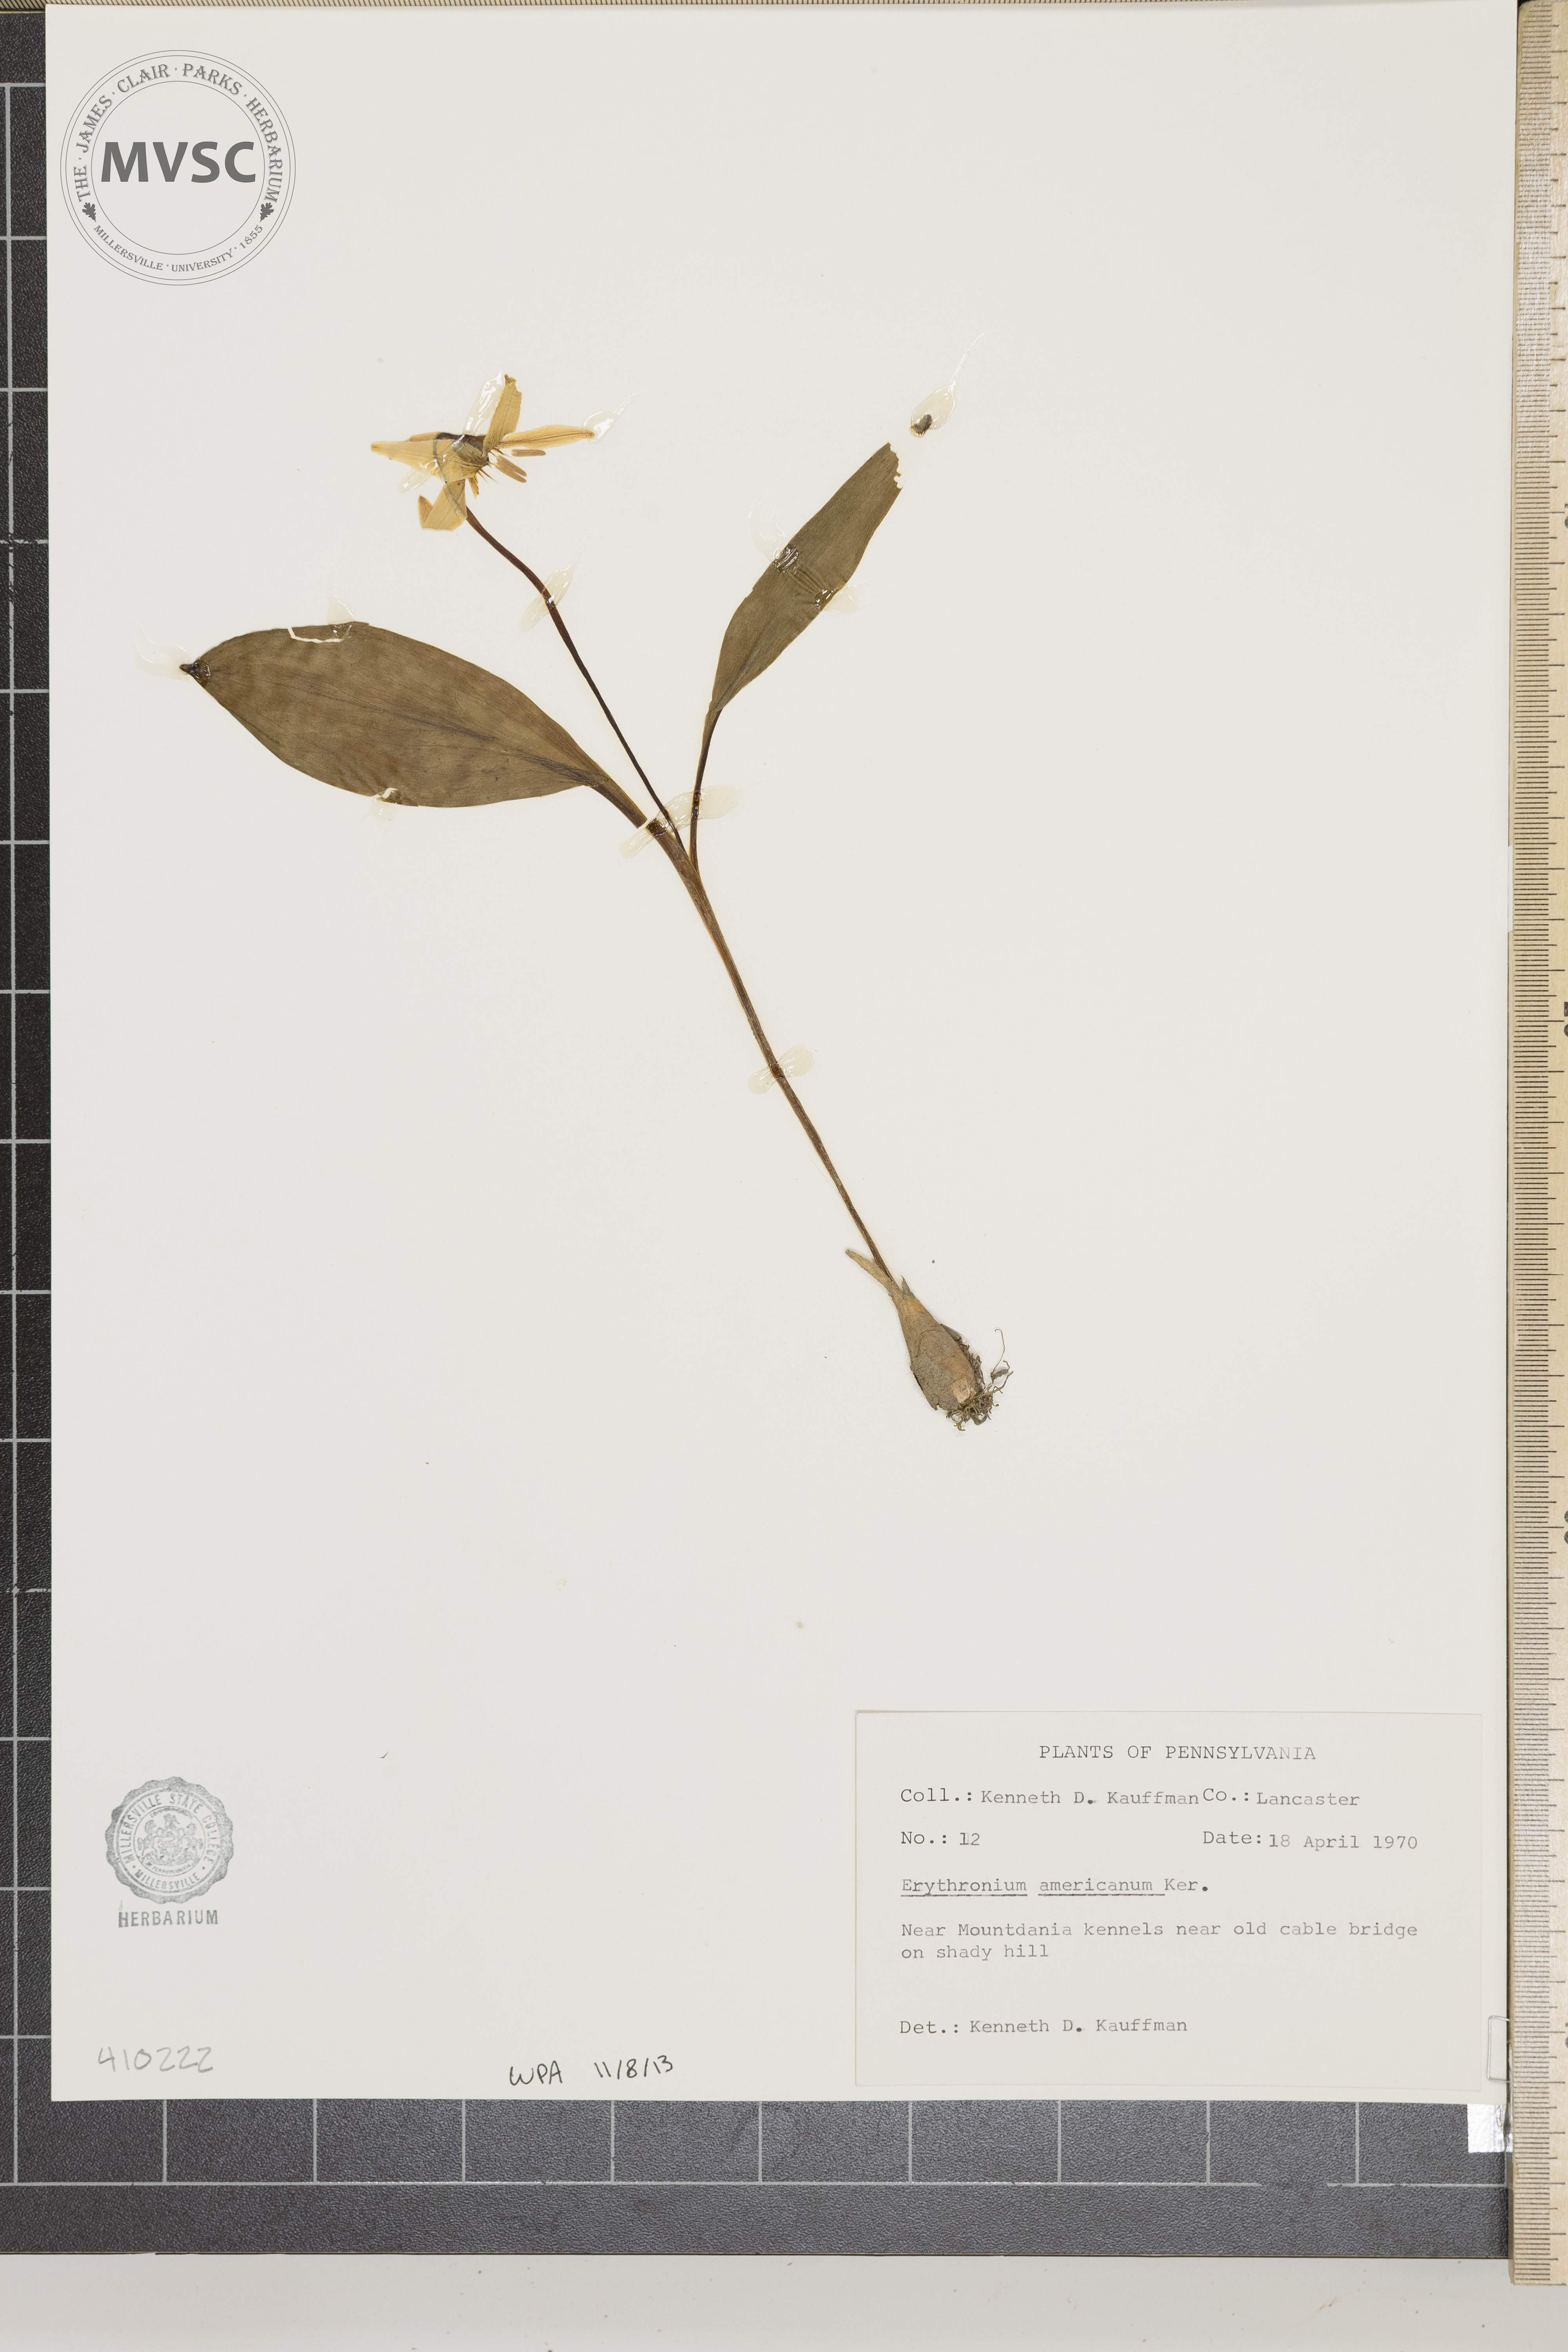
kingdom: Plantae
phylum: Tracheophyta
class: Liliopsida
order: Liliales
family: Liliaceae
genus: Erythronium
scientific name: Erythronium americanum
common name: Yellow adder's-tongue
